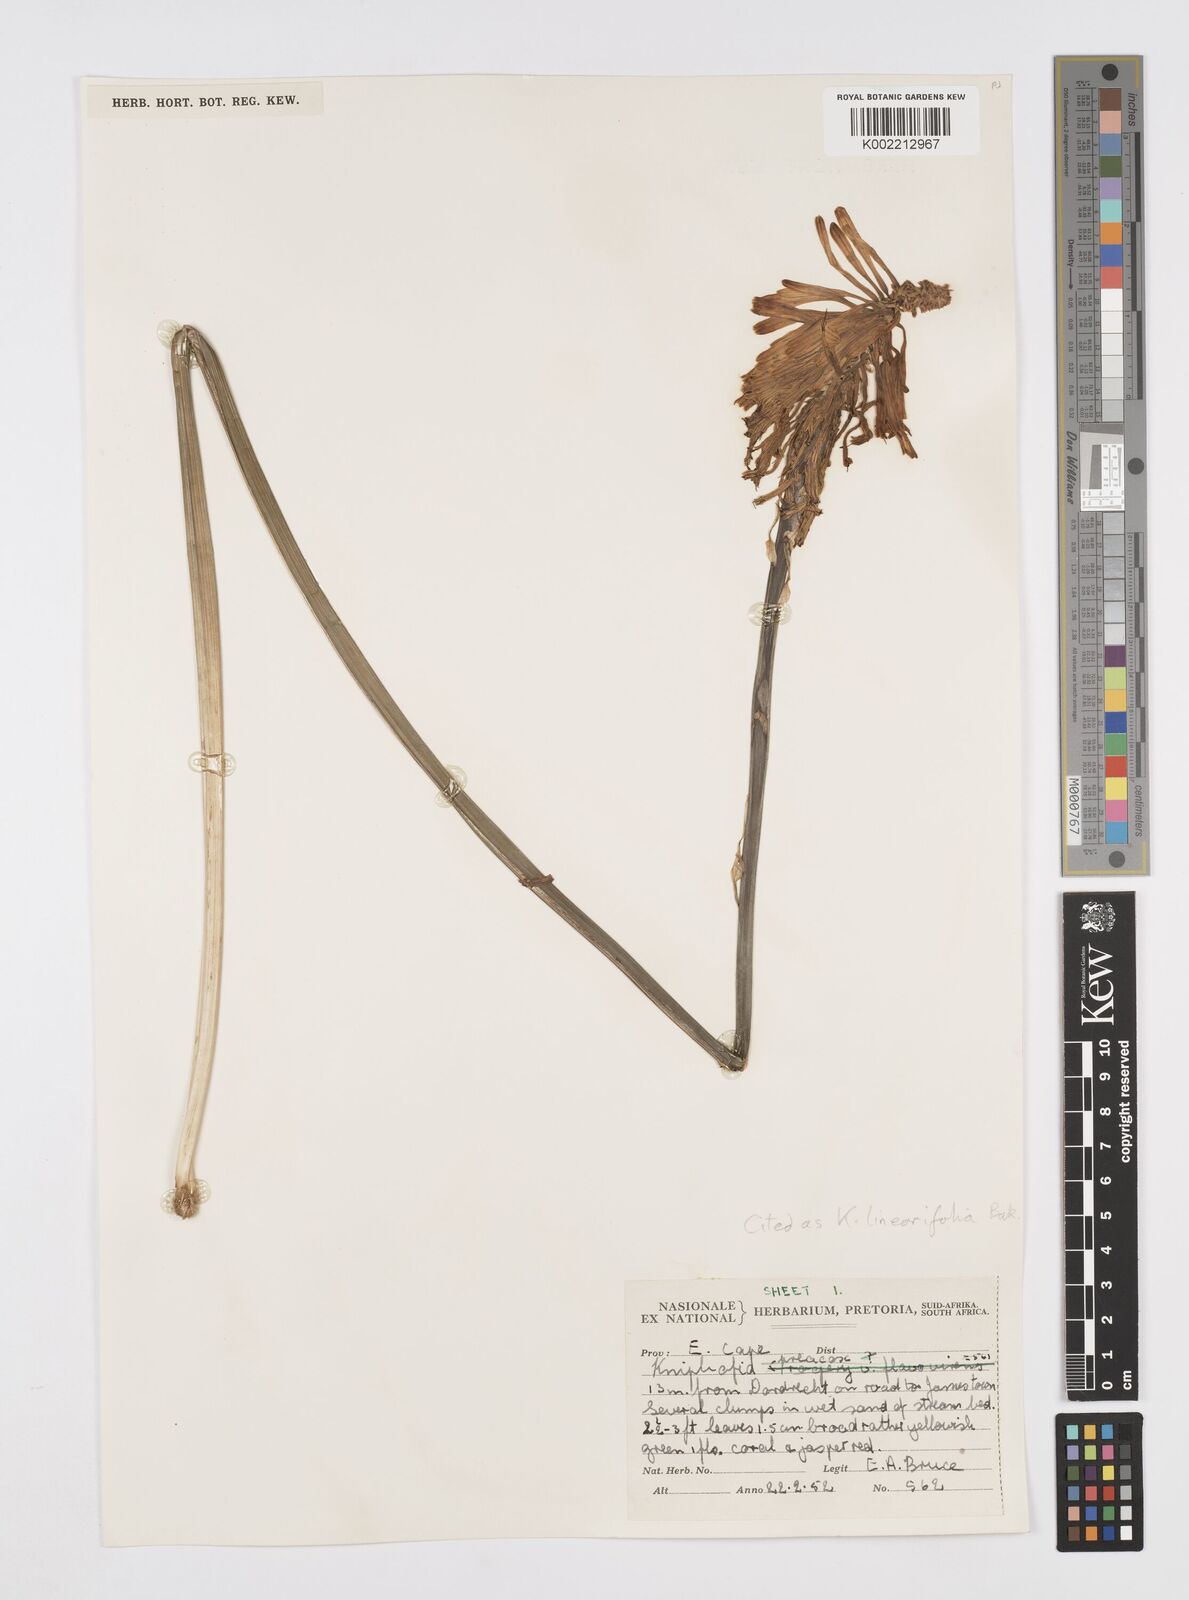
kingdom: Plantae
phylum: Tracheophyta
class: Liliopsida
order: Asparagales
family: Asphodelaceae
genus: Kniphofia
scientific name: Kniphofia linearifolia
